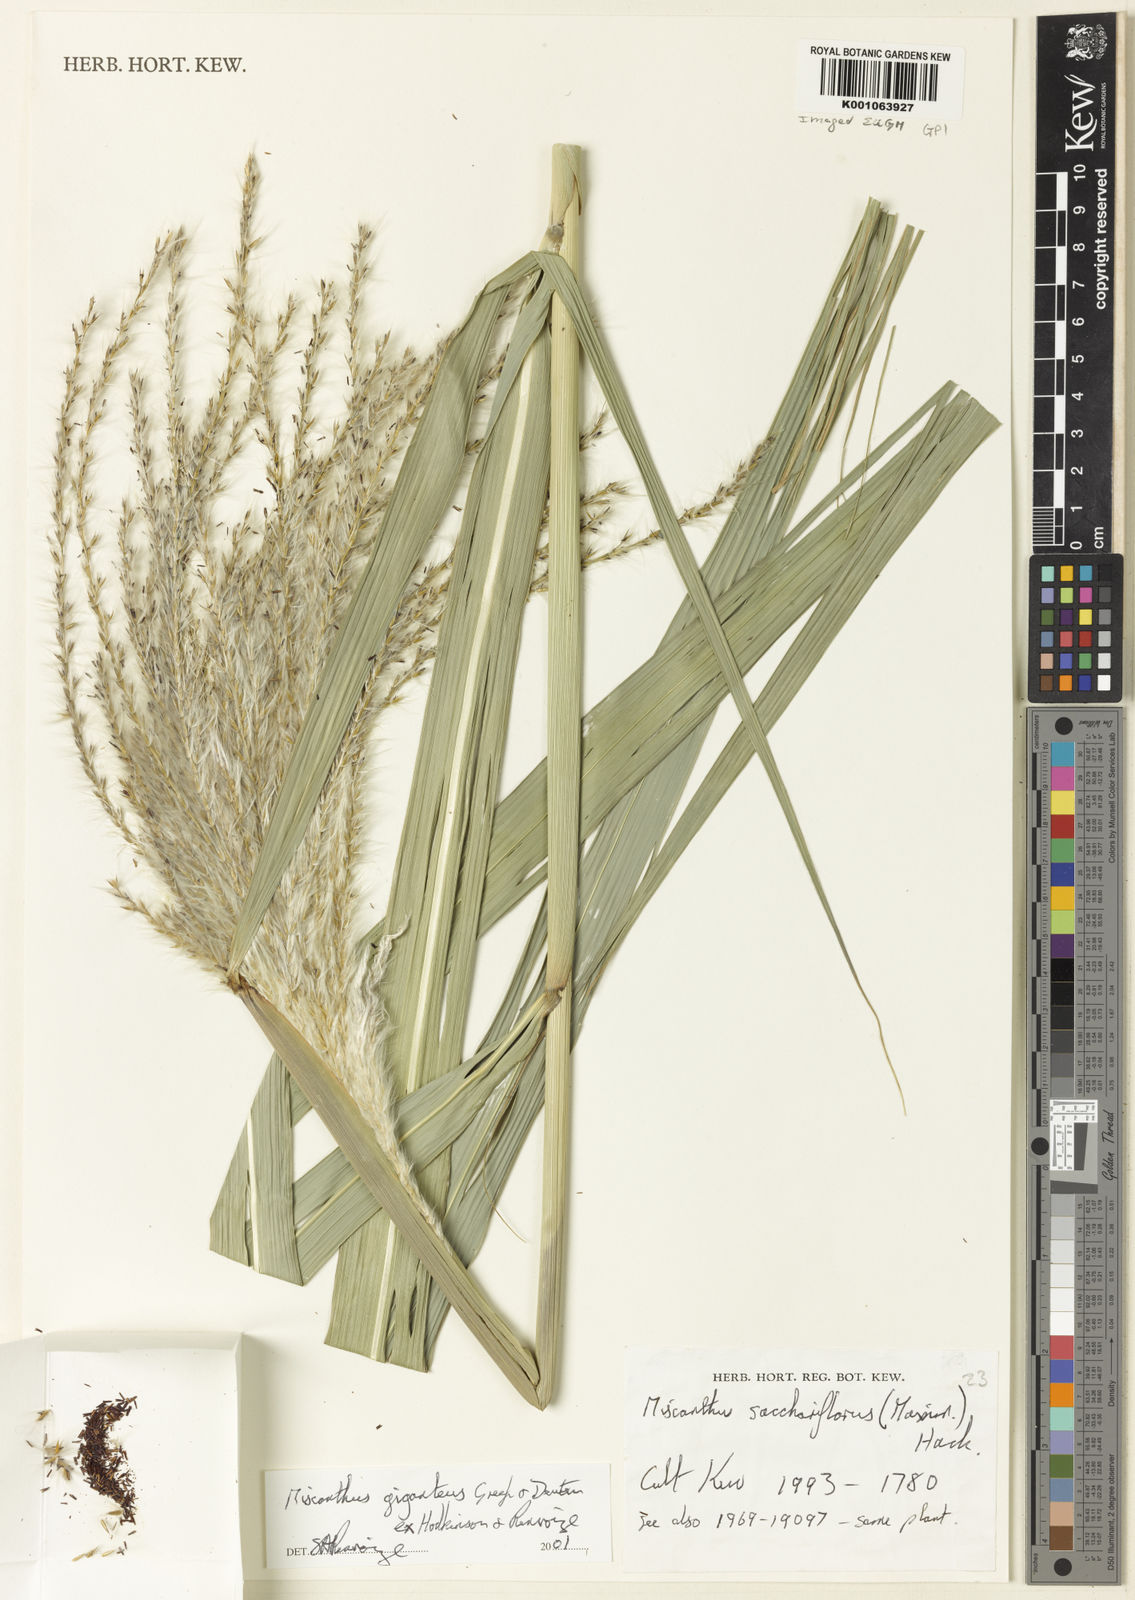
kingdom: Plantae
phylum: Tracheophyta
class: Liliopsida
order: Poales
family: Poaceae
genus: Miscanthus
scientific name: Miscanthus longiberbis
